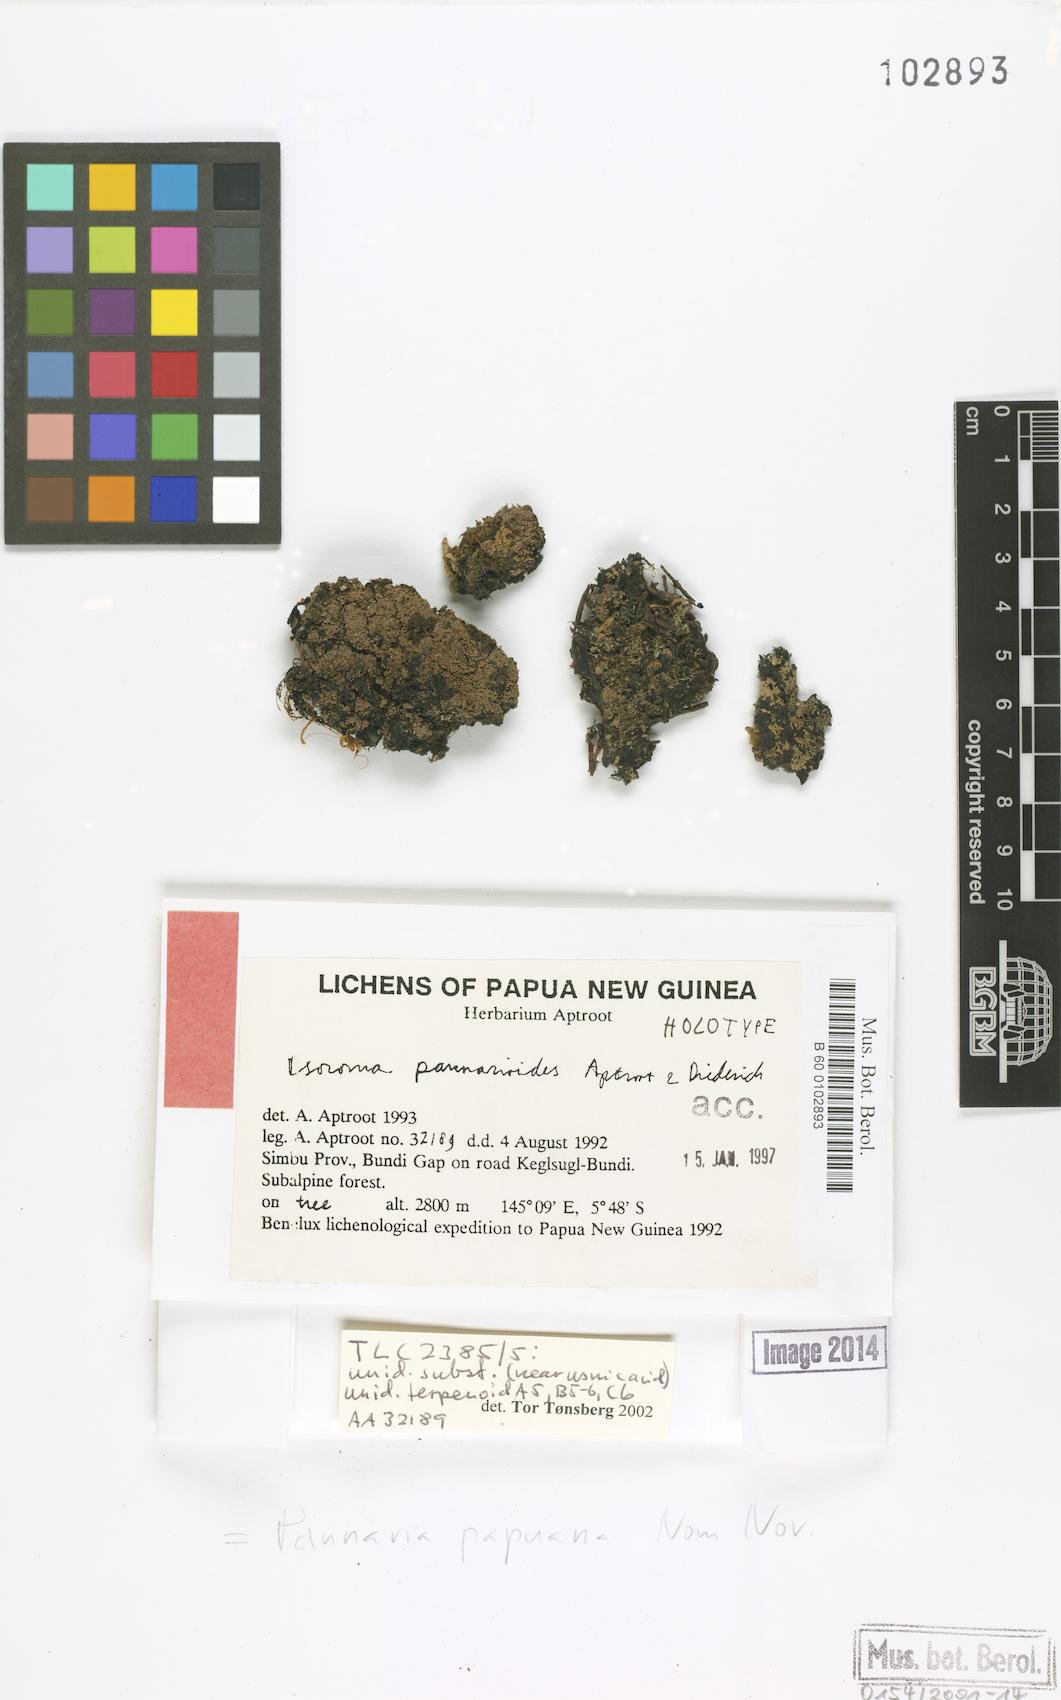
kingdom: Fungi
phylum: Ascomycota
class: Lecanoromycetes
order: Peltigerales
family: Pannariaceae
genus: Psoroma
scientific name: Psoroma pannarioides
